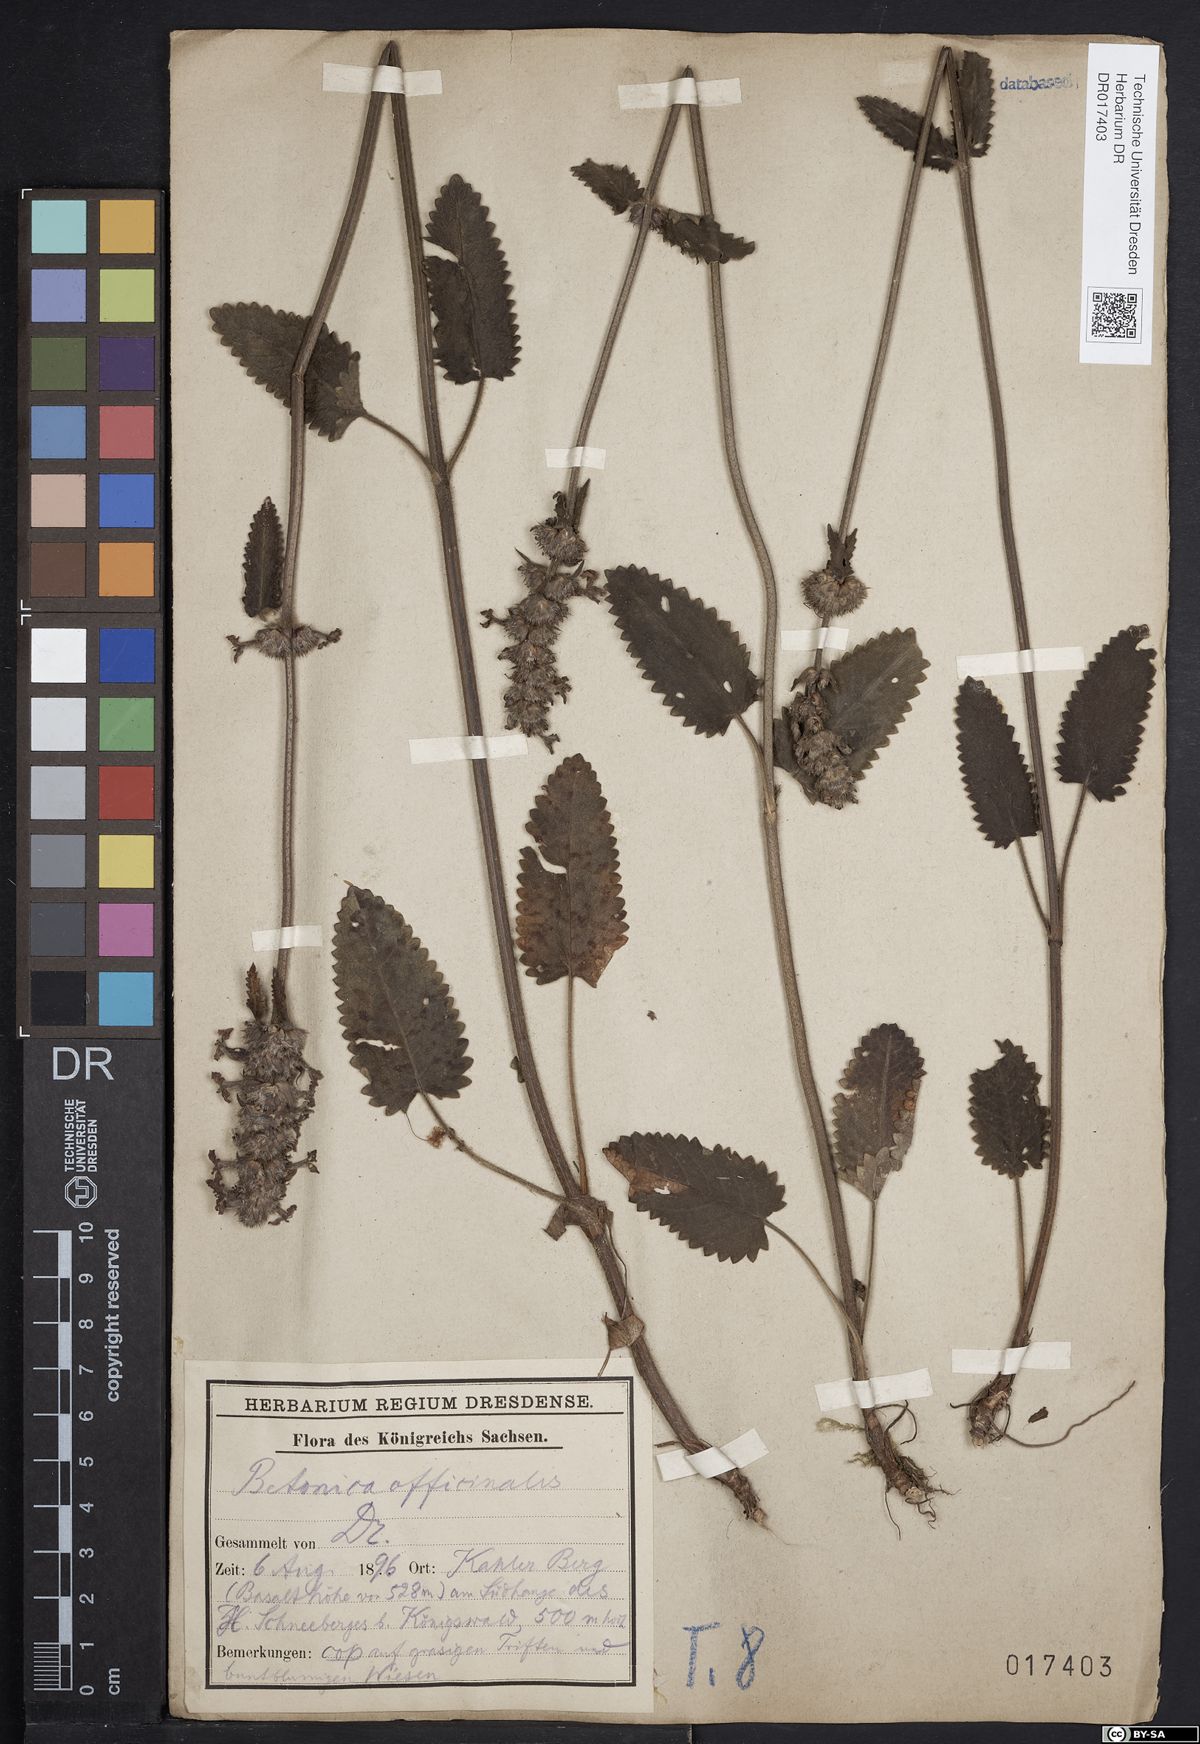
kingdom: Plantae
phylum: Tracheophyta
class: Magnoliopsida
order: Lamiales
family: Lamiaceae
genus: Betonica
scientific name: Betonica officinalis
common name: Bishop's-wort
